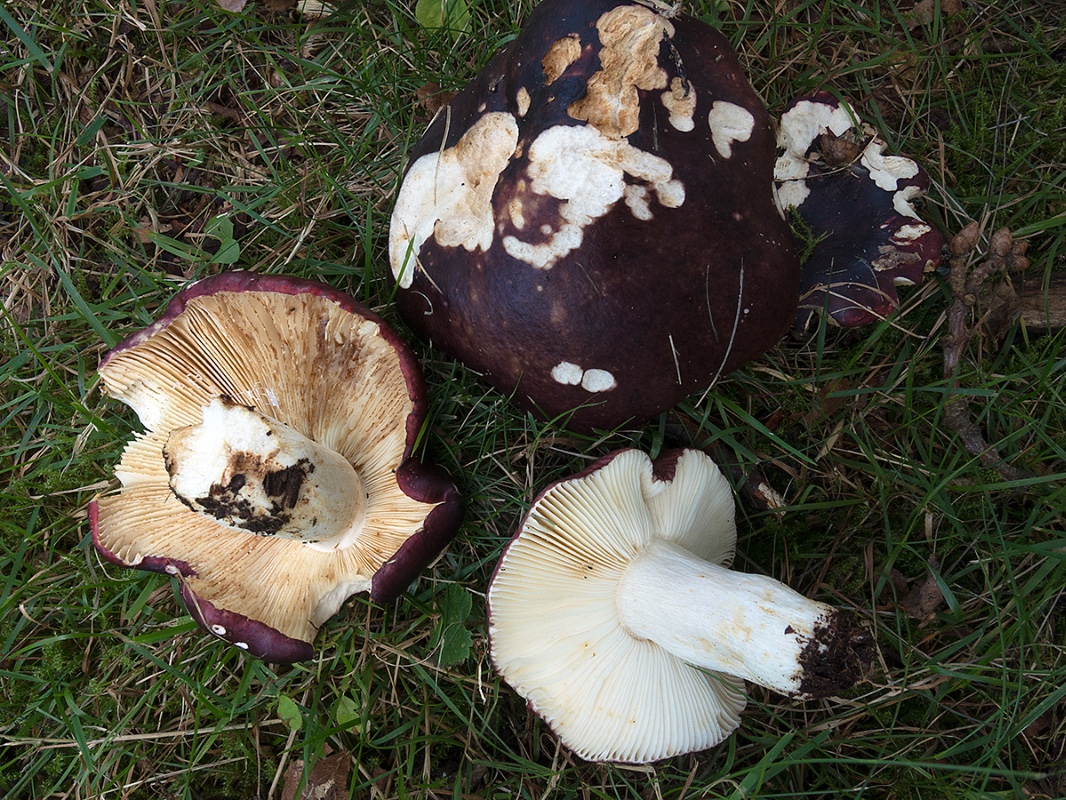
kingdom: Fungi
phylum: Basidiomycota
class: Agaricomycetes
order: Russulales
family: Russulaceae
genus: Russula
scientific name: Russula atropurpurea
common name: purpurbroget skørhat
